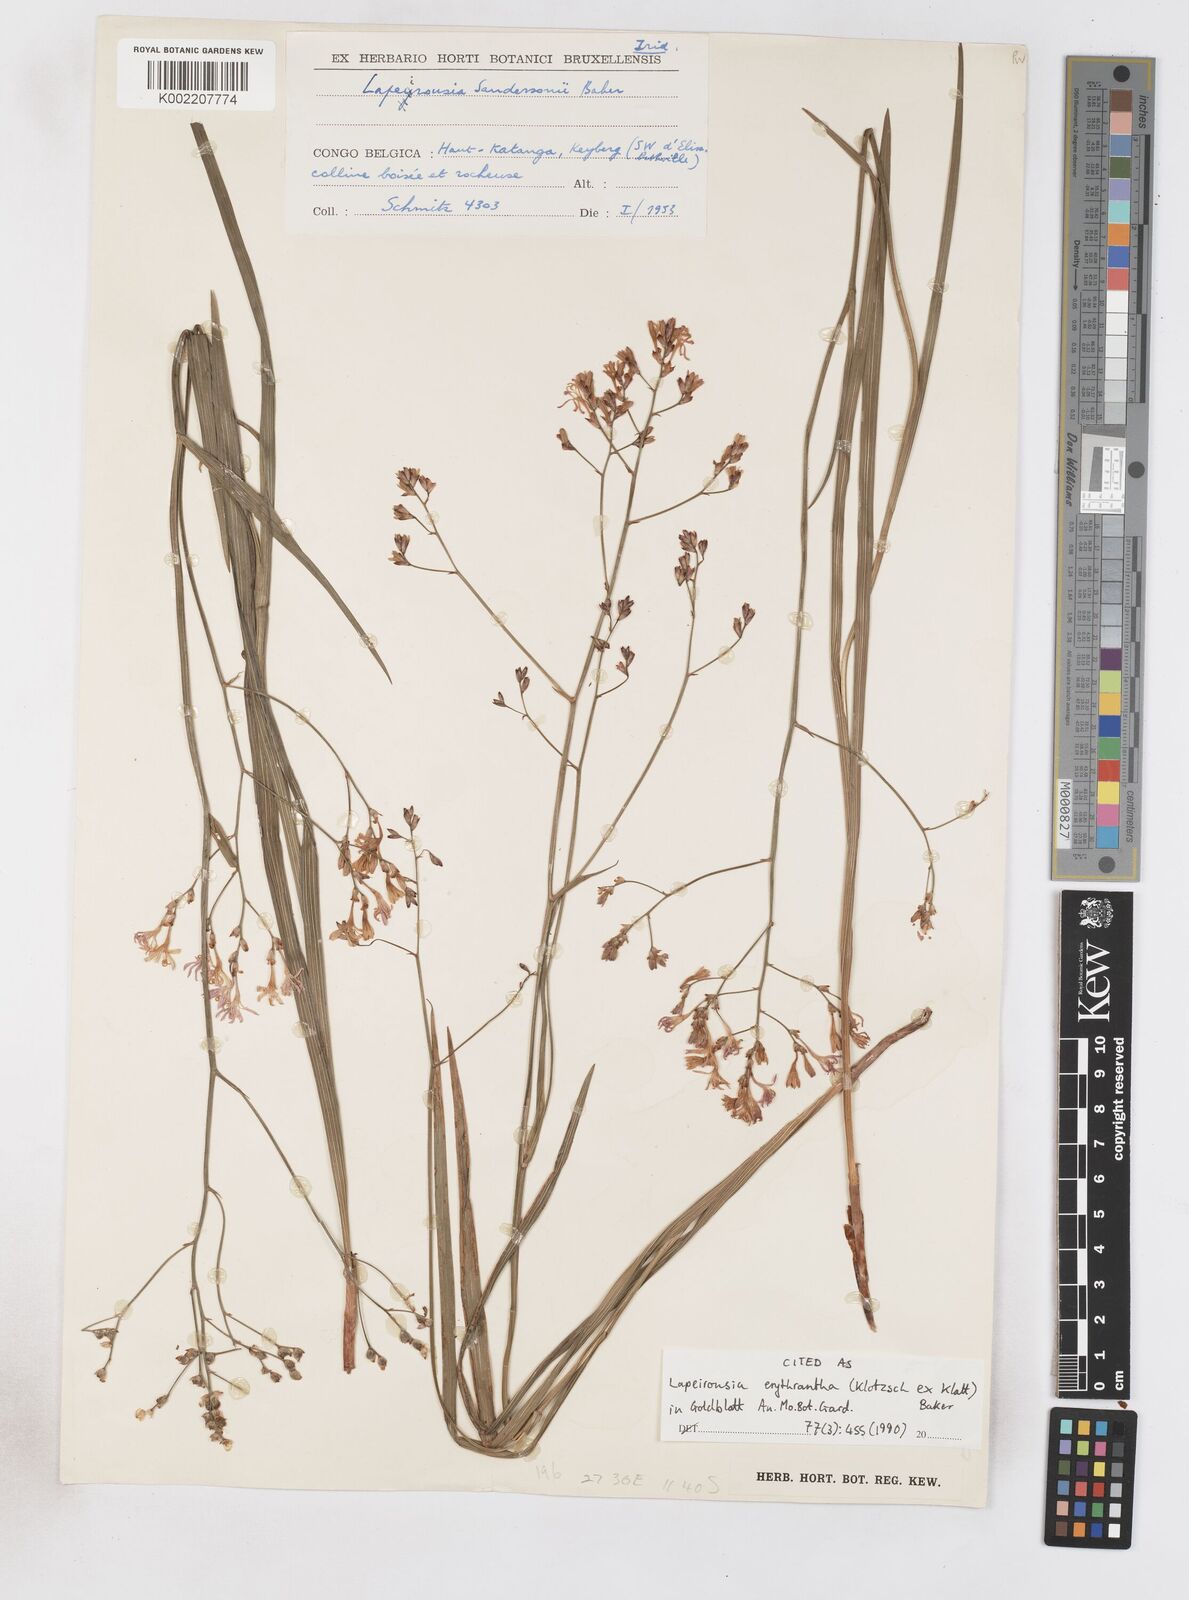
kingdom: Plantae
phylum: Tracheophyta
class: Liliopsida
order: Asparagales
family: Iridaceae
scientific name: Iridaceae
